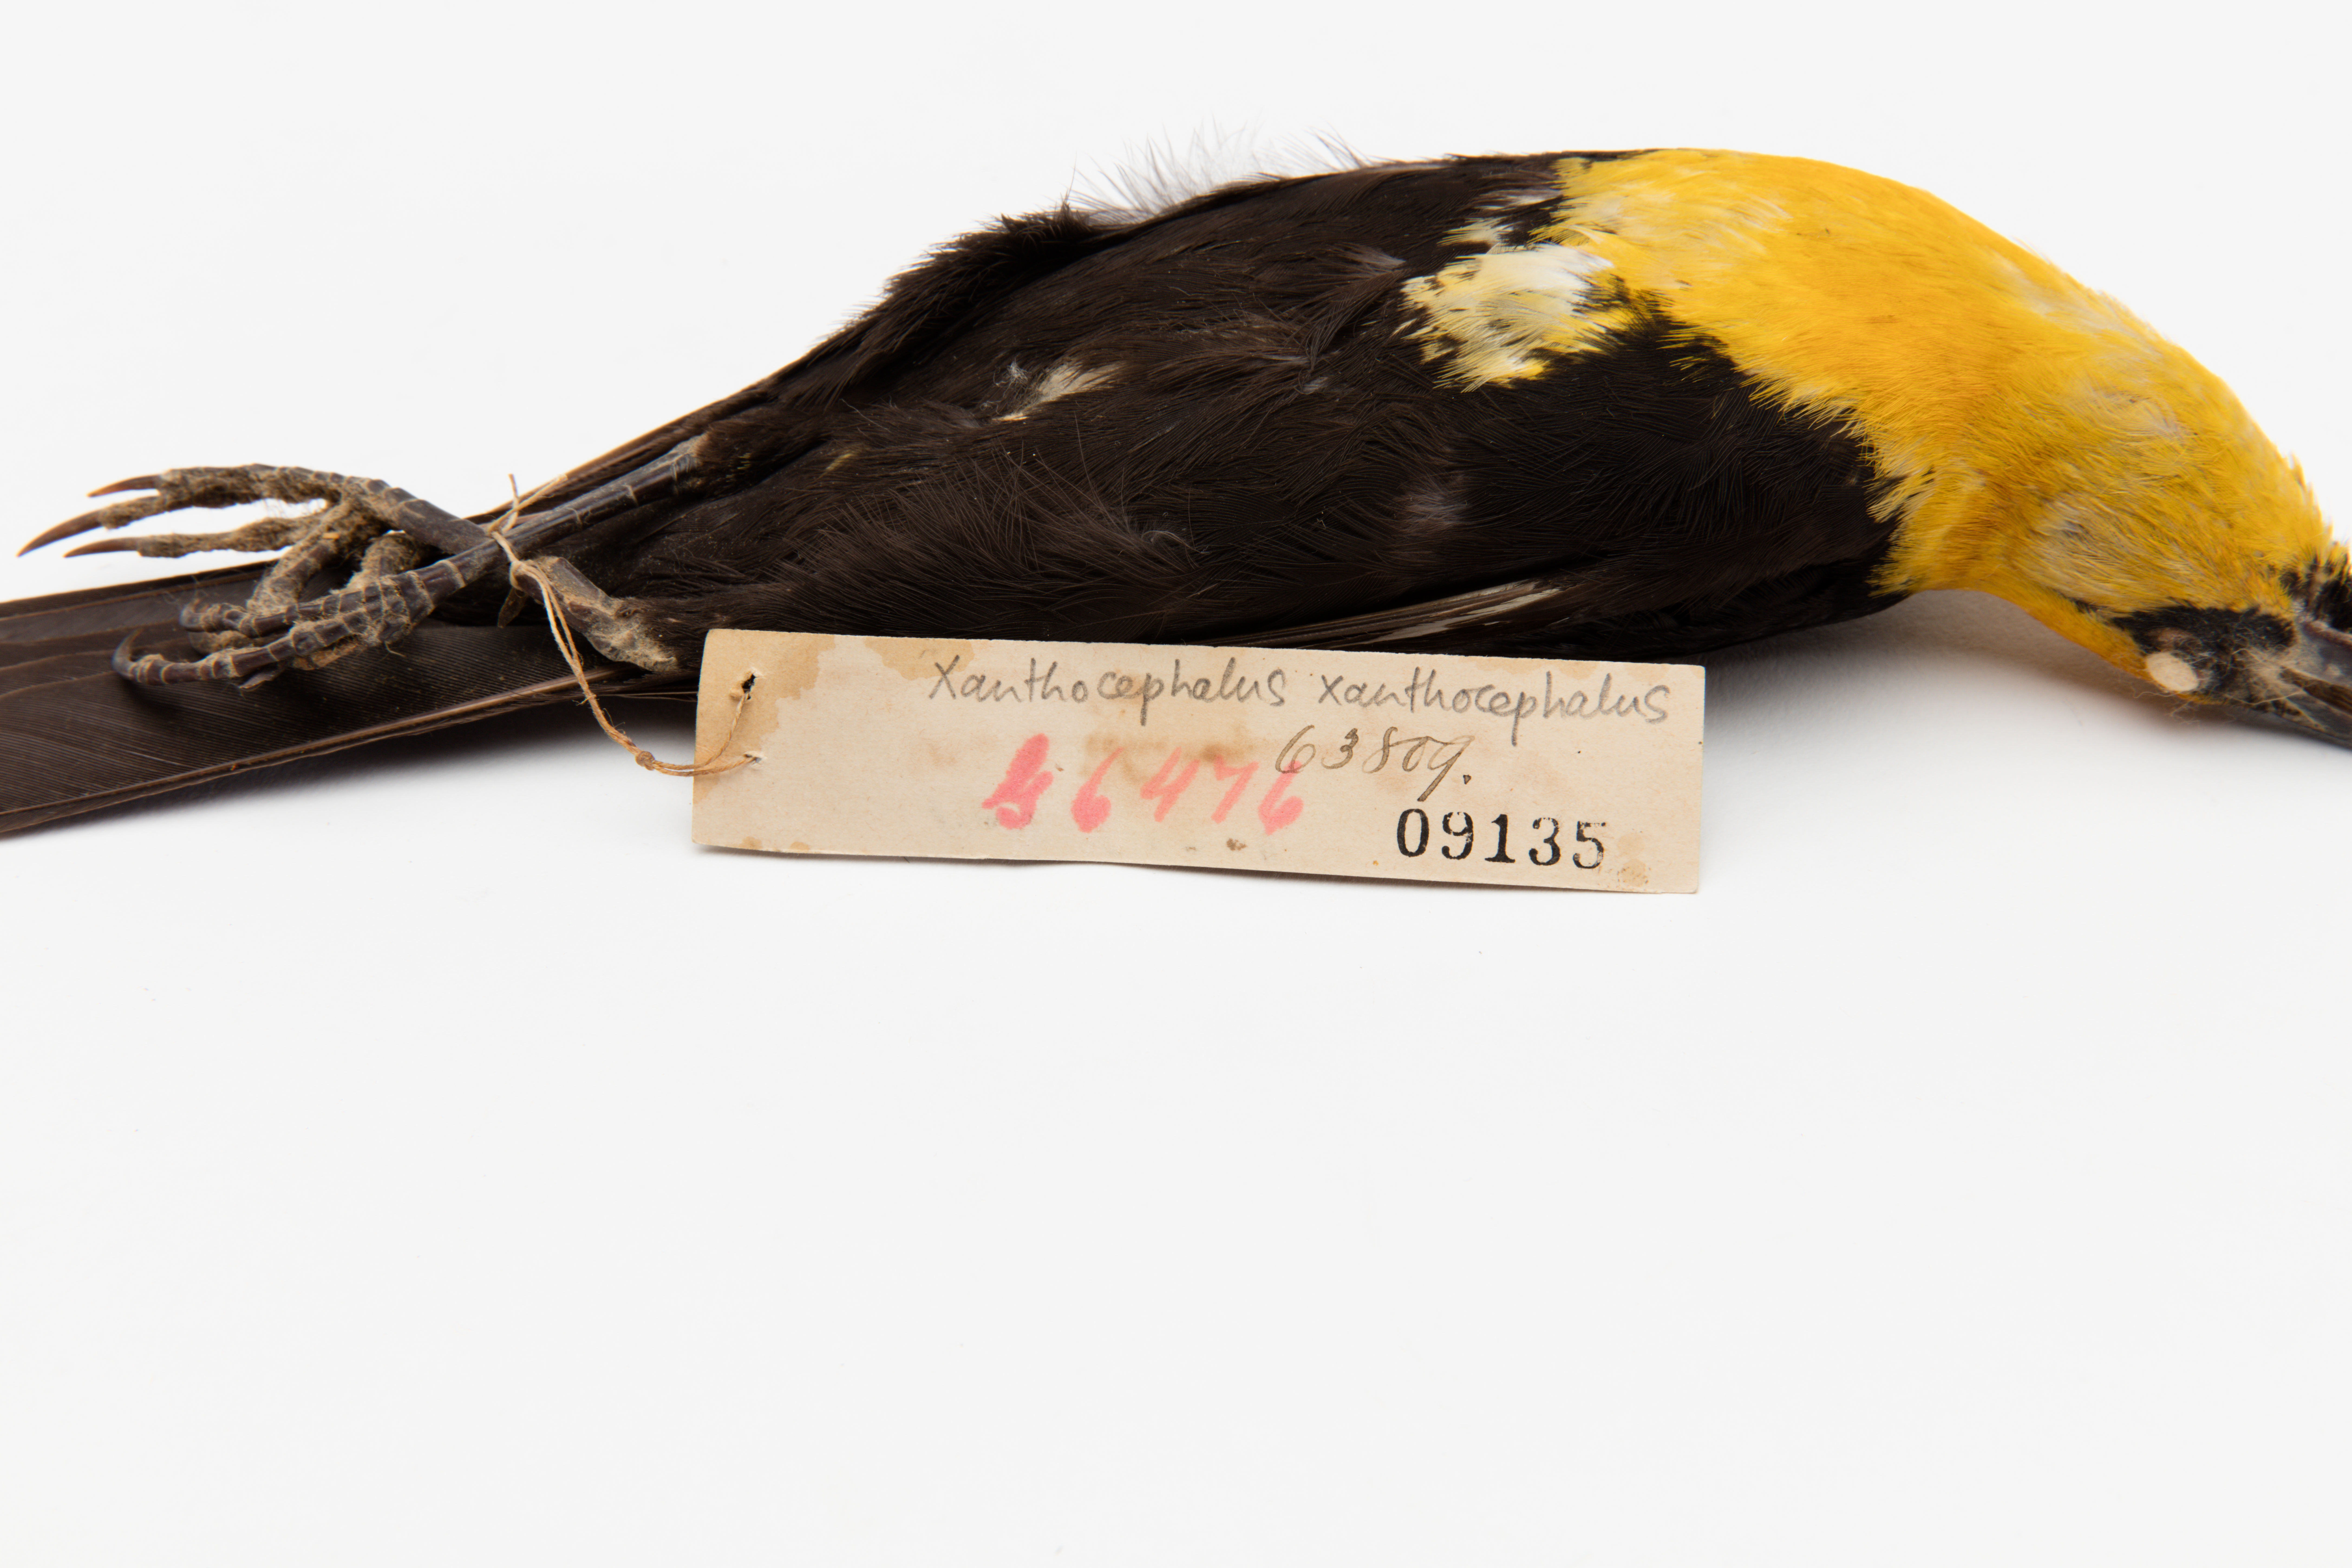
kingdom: Animalia
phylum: Chordata
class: Aves
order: Passeriformes
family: Icteridae
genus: Xanthocephalus
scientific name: Xanthocephalus xanthocephalus
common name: Yellow-headed blackbird
